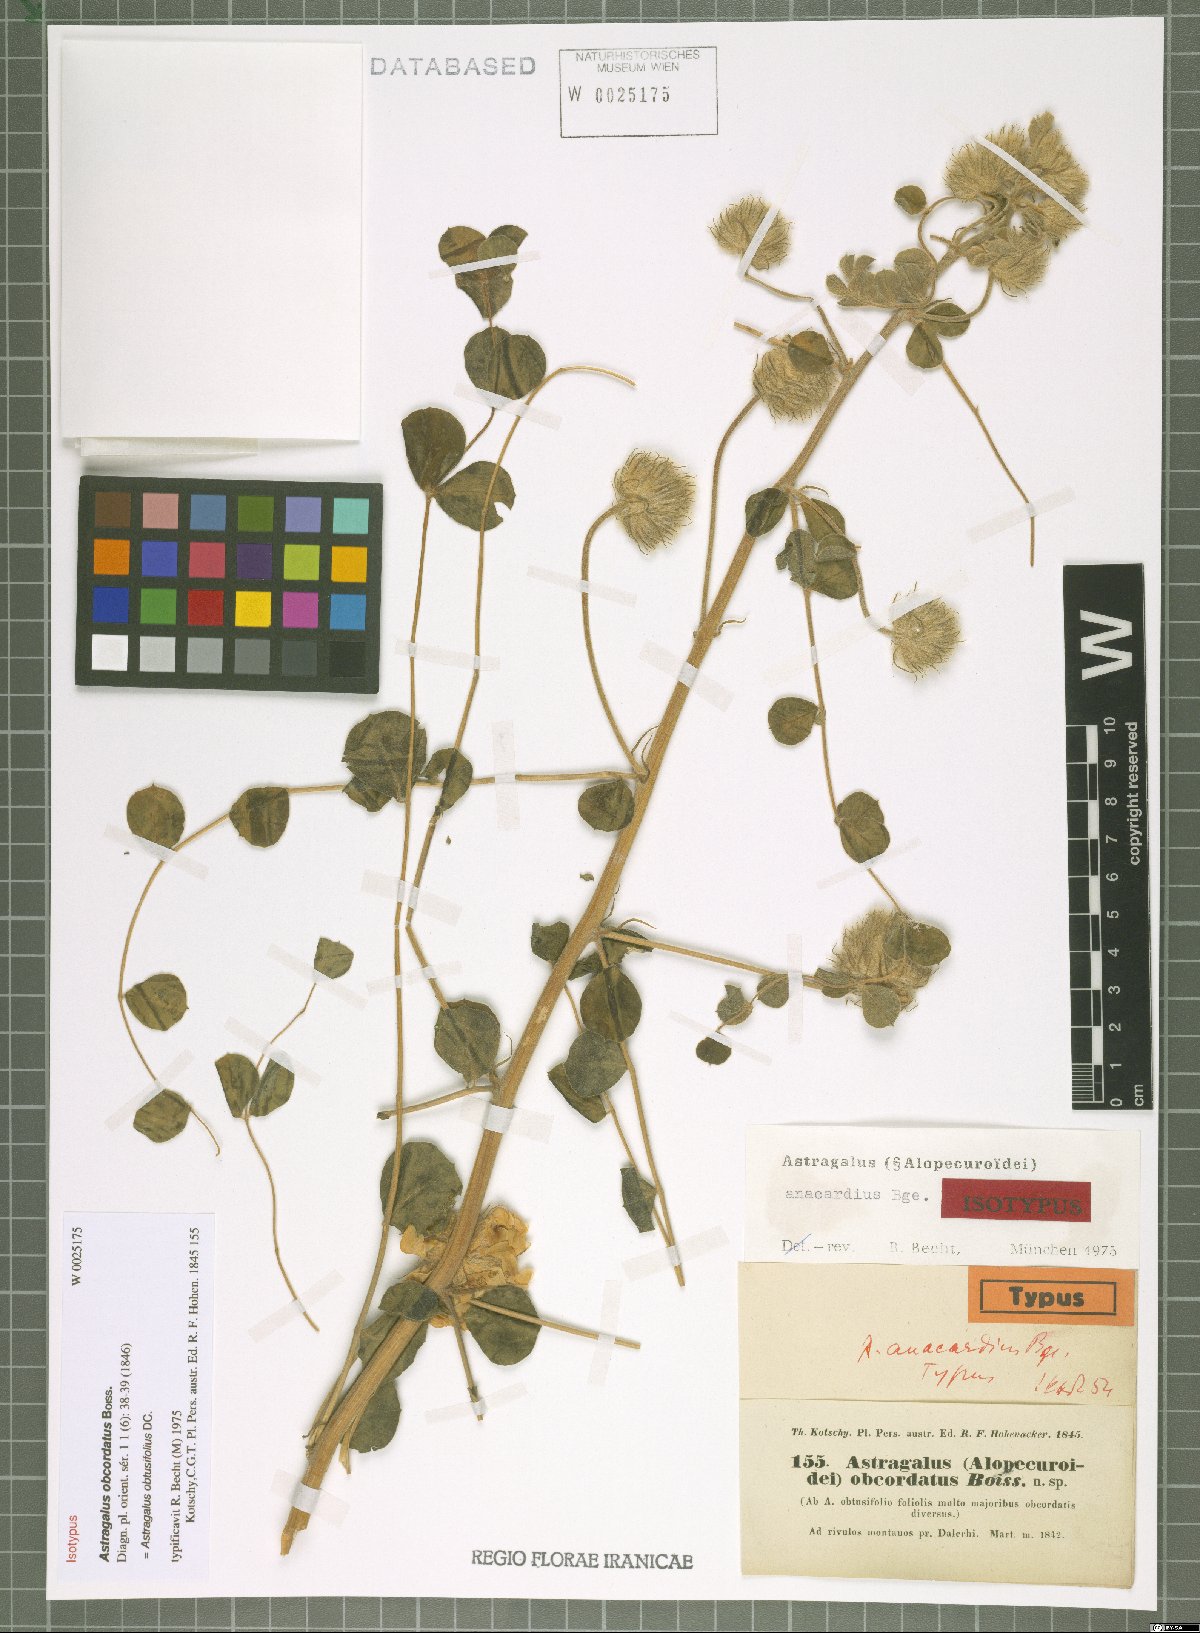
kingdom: Plantae
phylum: Tracheophyta
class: Magnoliopsida
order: Fabales
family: Fabaceae
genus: Astragalus
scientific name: Astragalus obtusifolius
